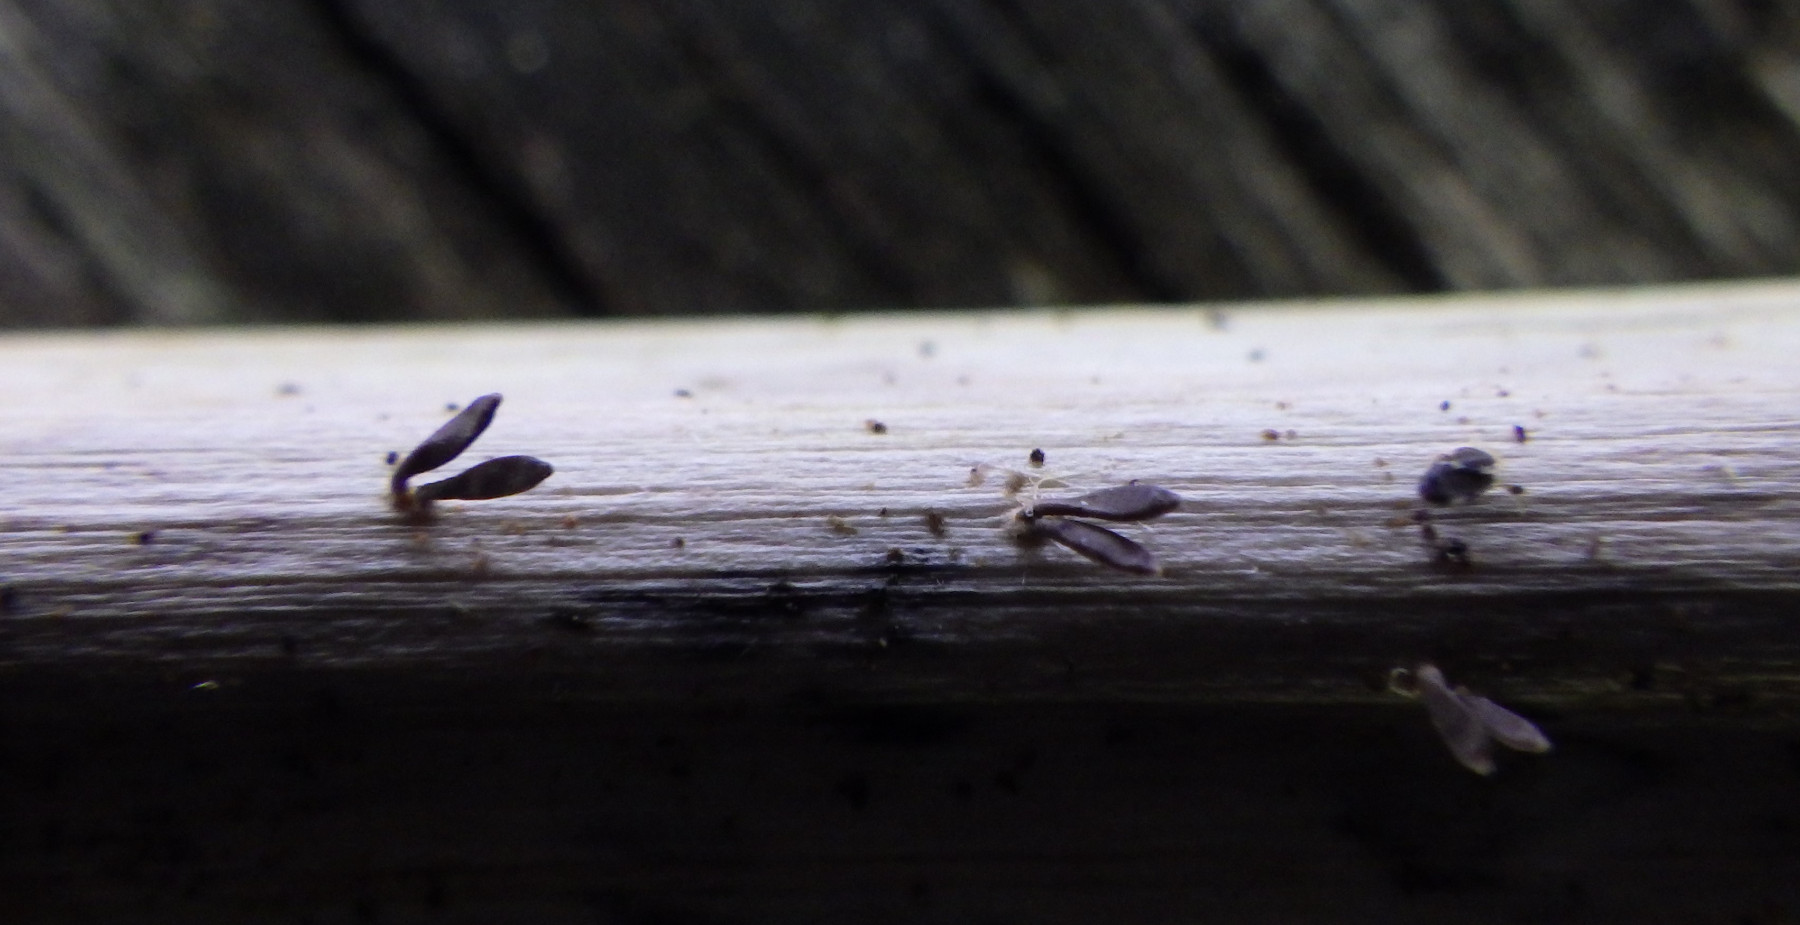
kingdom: Fungi
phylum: Ascomycota
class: Dothideomycetes
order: Acrospermales
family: Acrospermaceae
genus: Acrospermum
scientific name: Acrospermum compressum
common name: nælde-stængeltunge
